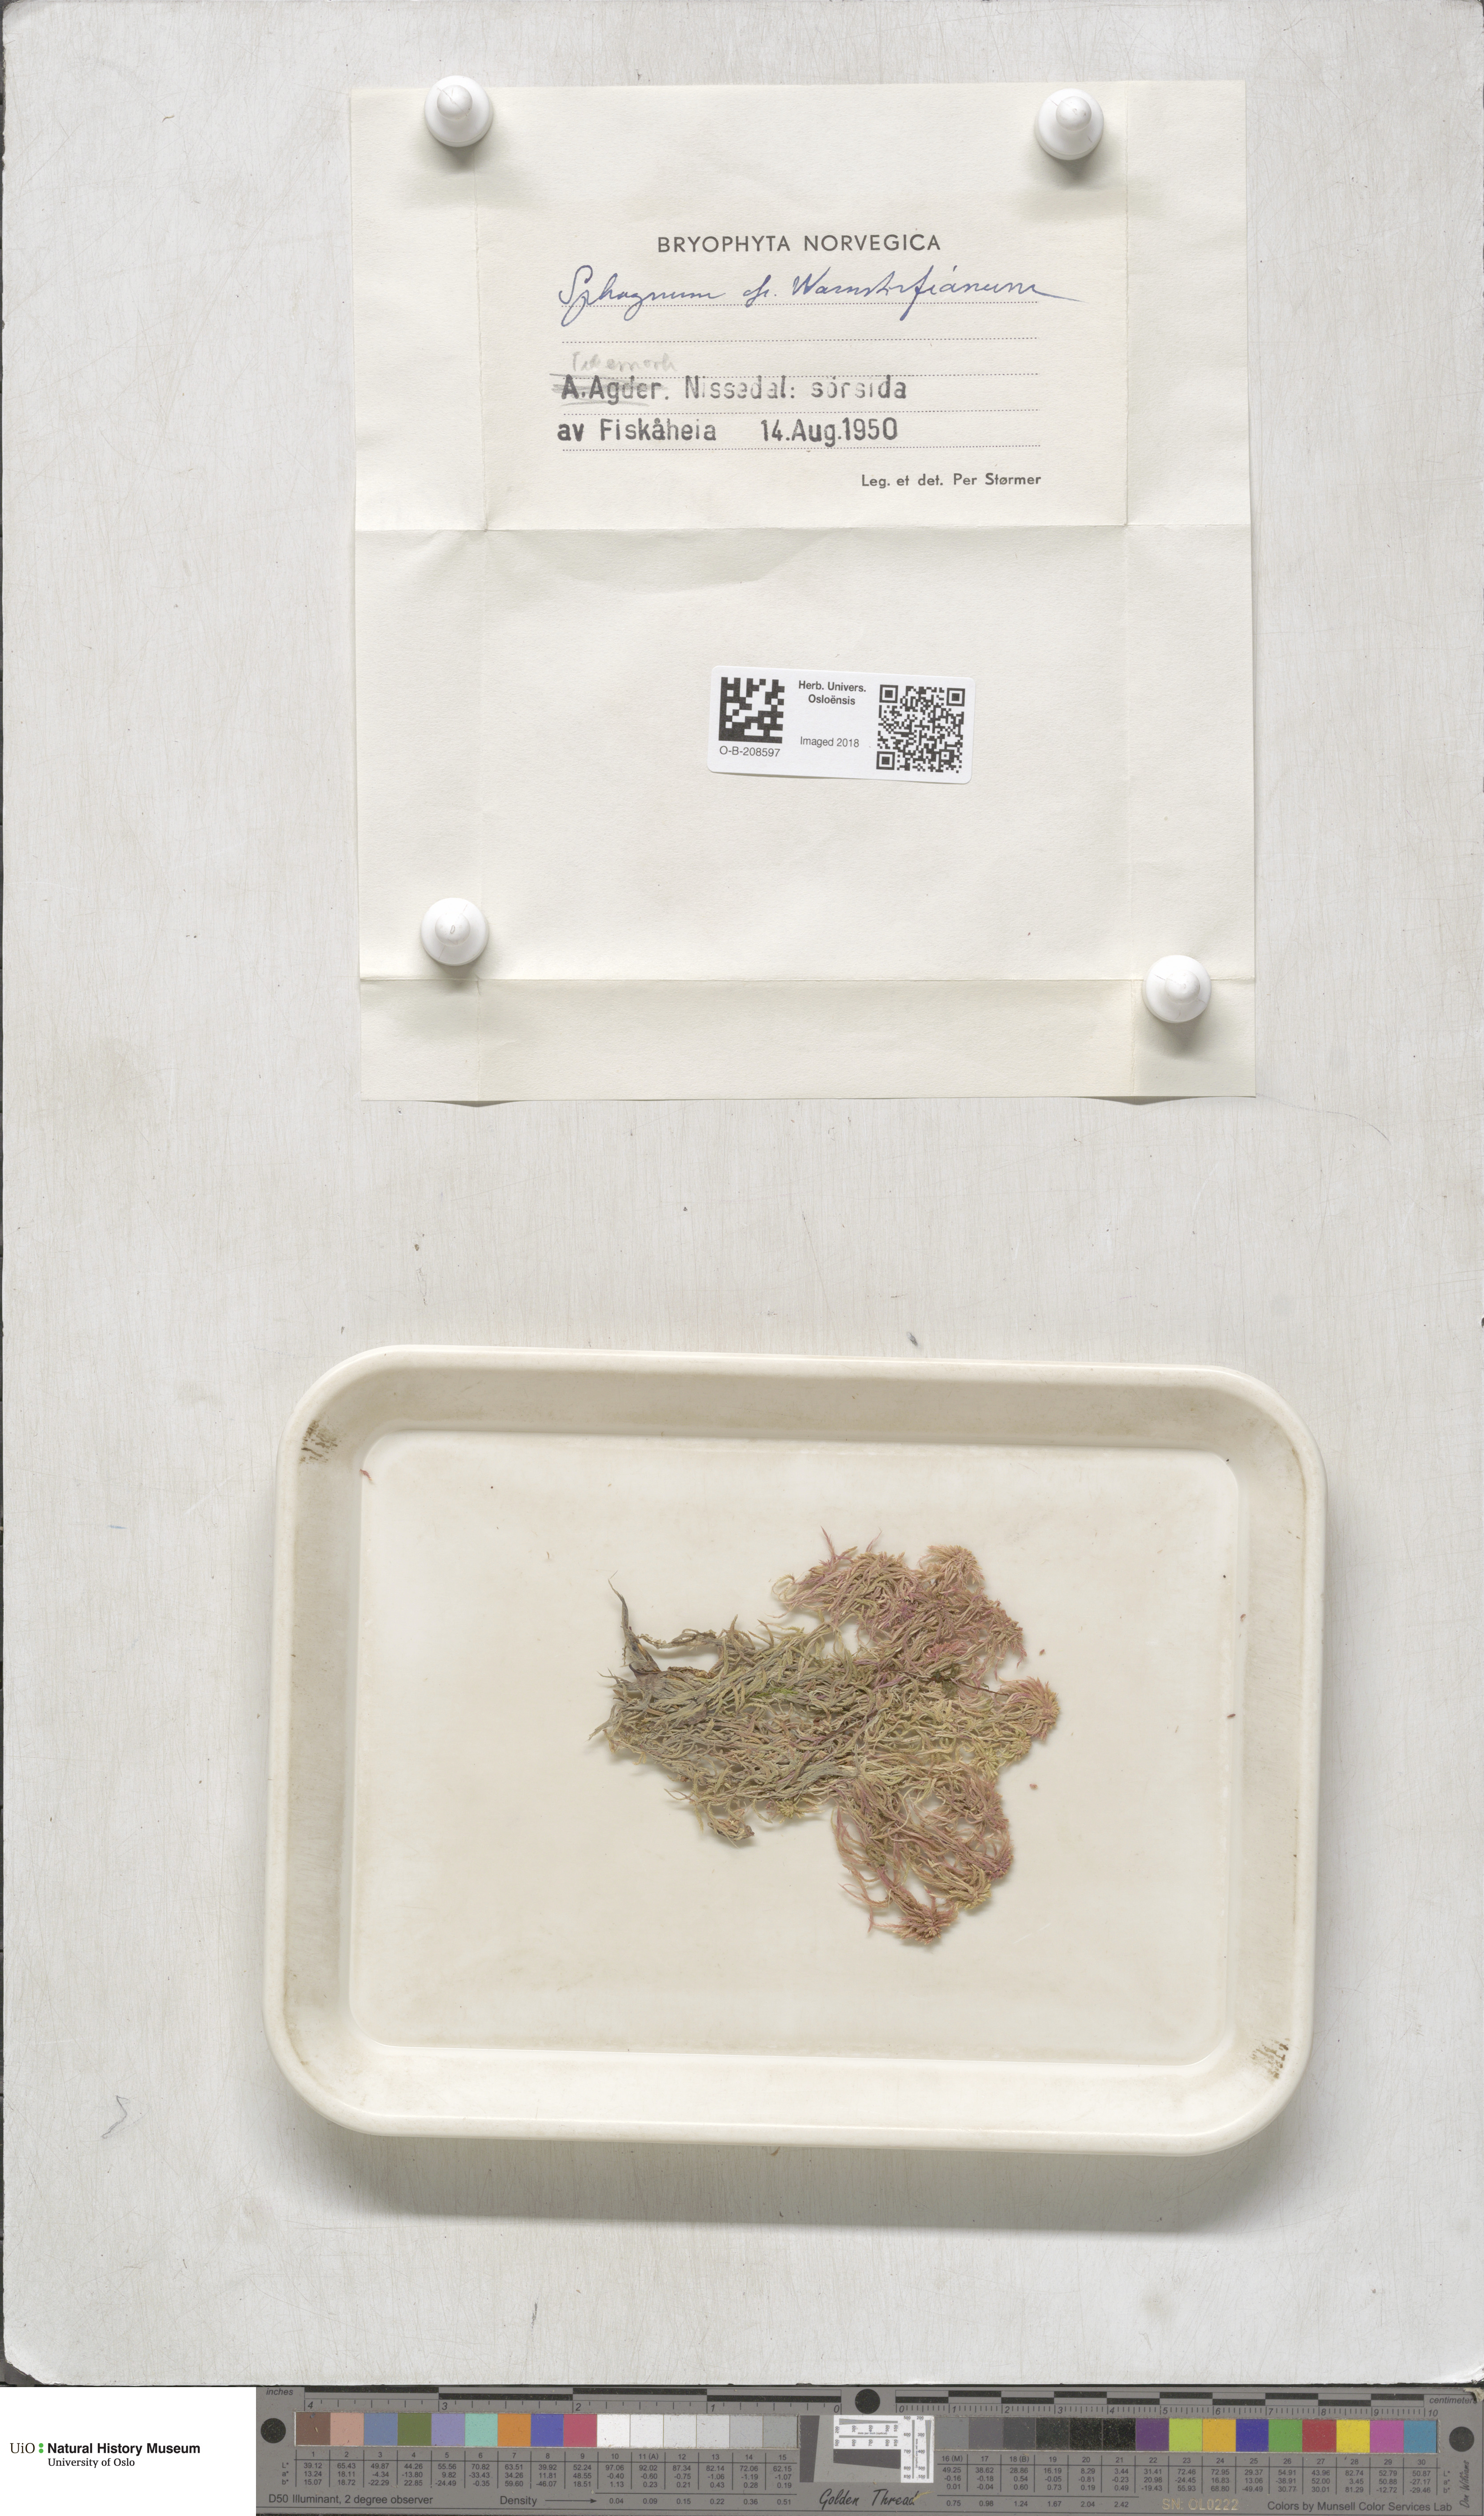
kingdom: Plantae
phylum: Bryophyta
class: Sphagnopsida
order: Sphagnales
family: Sphagnaceae
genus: Sphagnum
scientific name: Sphagnum warnstorfii
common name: Warnstorf's peat moss
